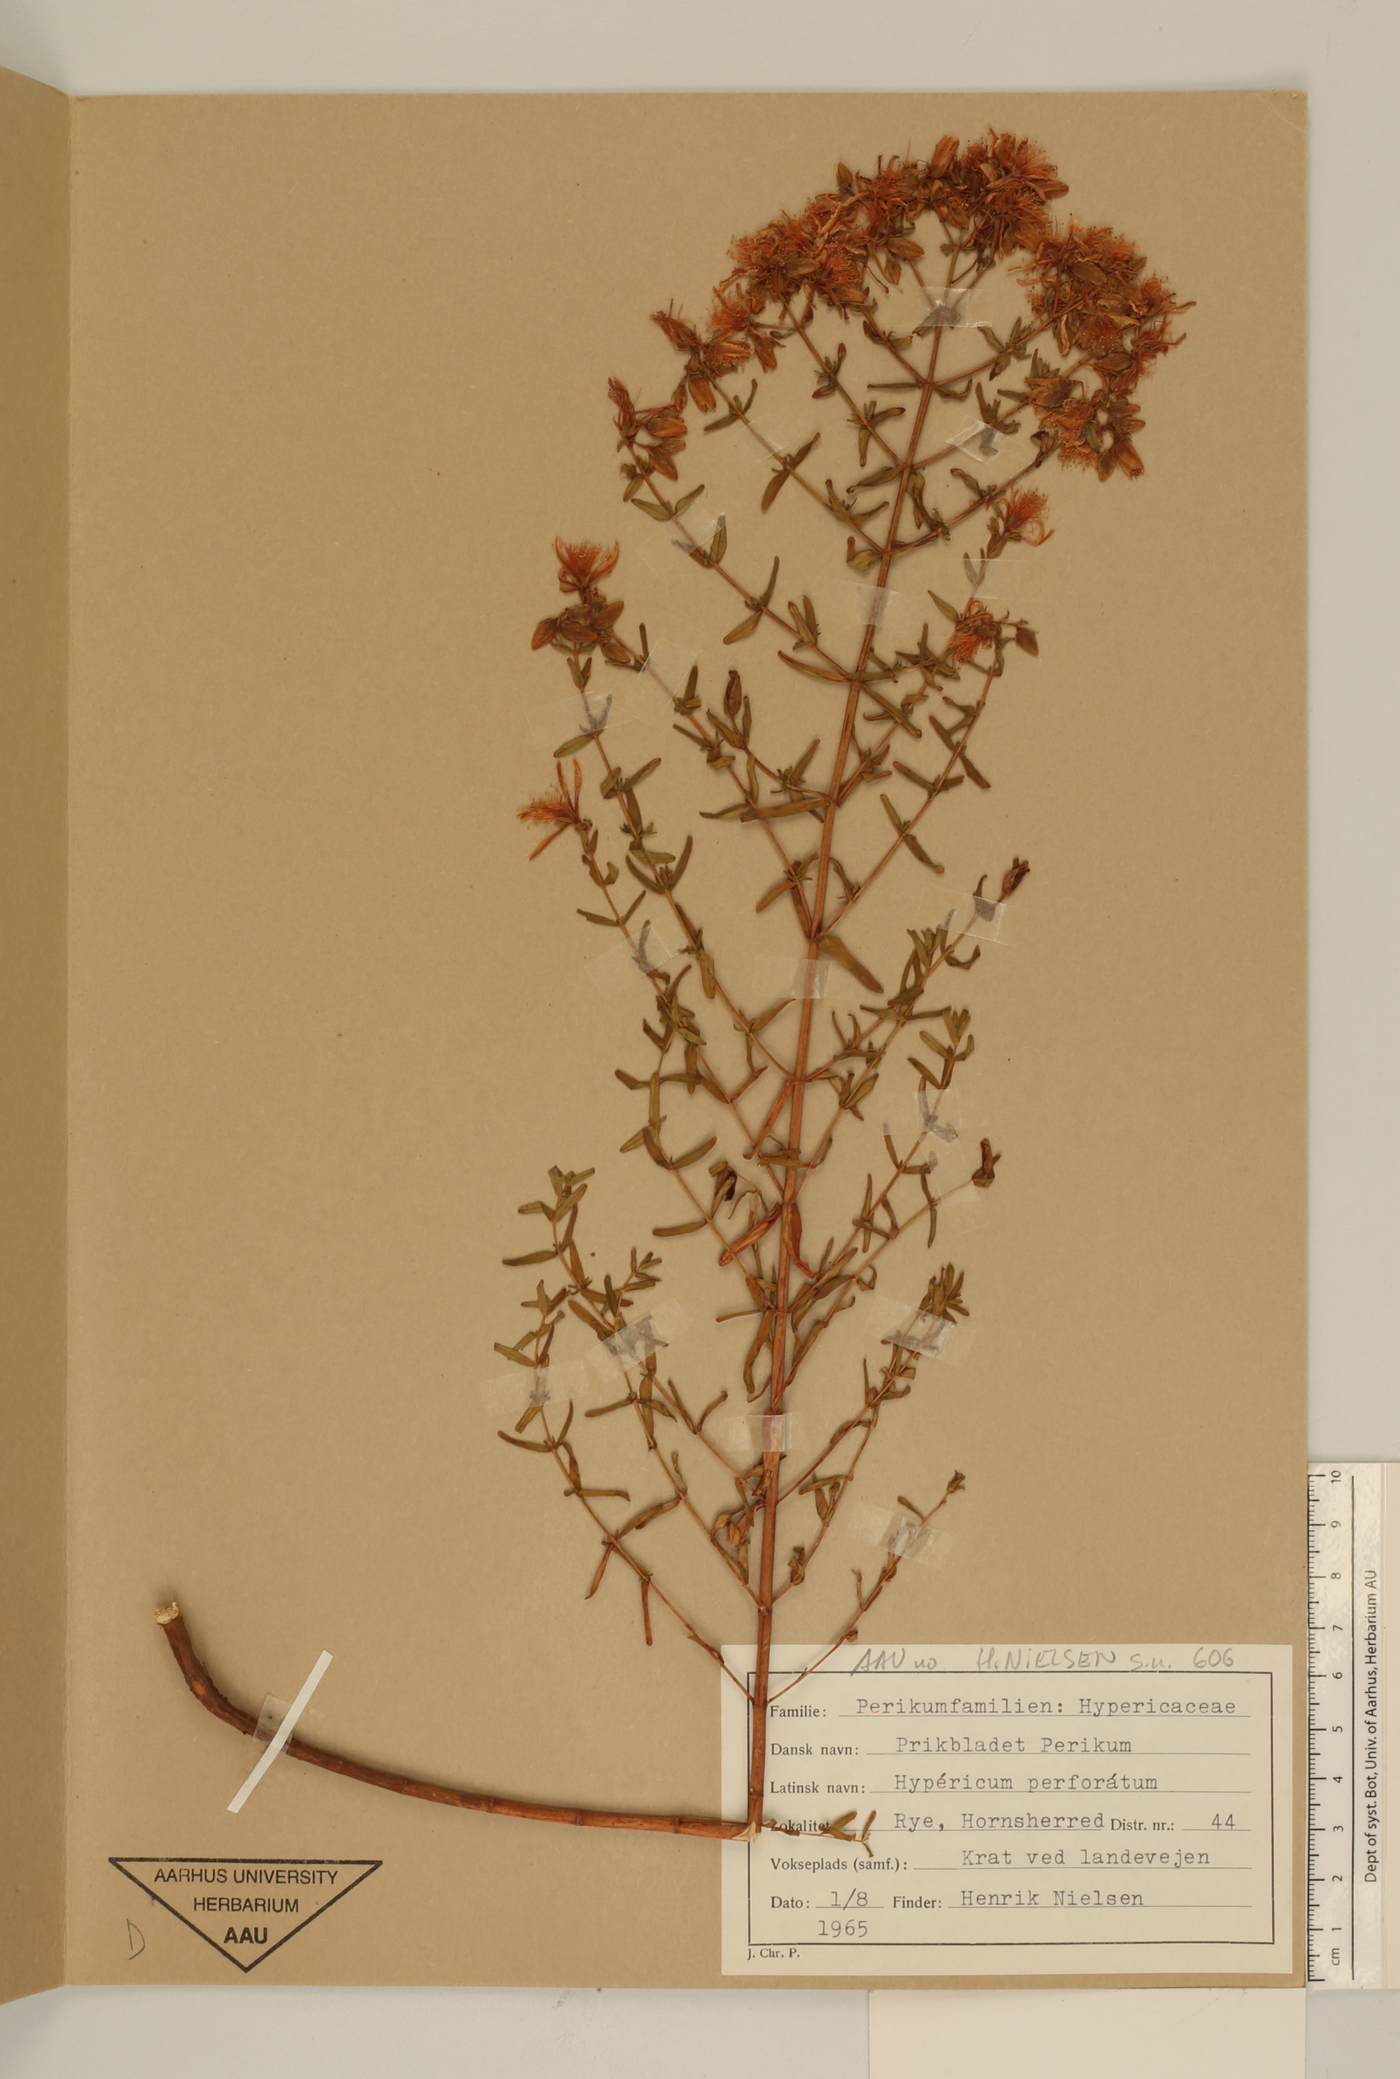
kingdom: Plantae
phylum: Tracheophyta
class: Magnoliopsida
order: Malpighiales
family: Hypericaceae
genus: Hypericum
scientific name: Hypericum perforatum
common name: Common st. johnswort
